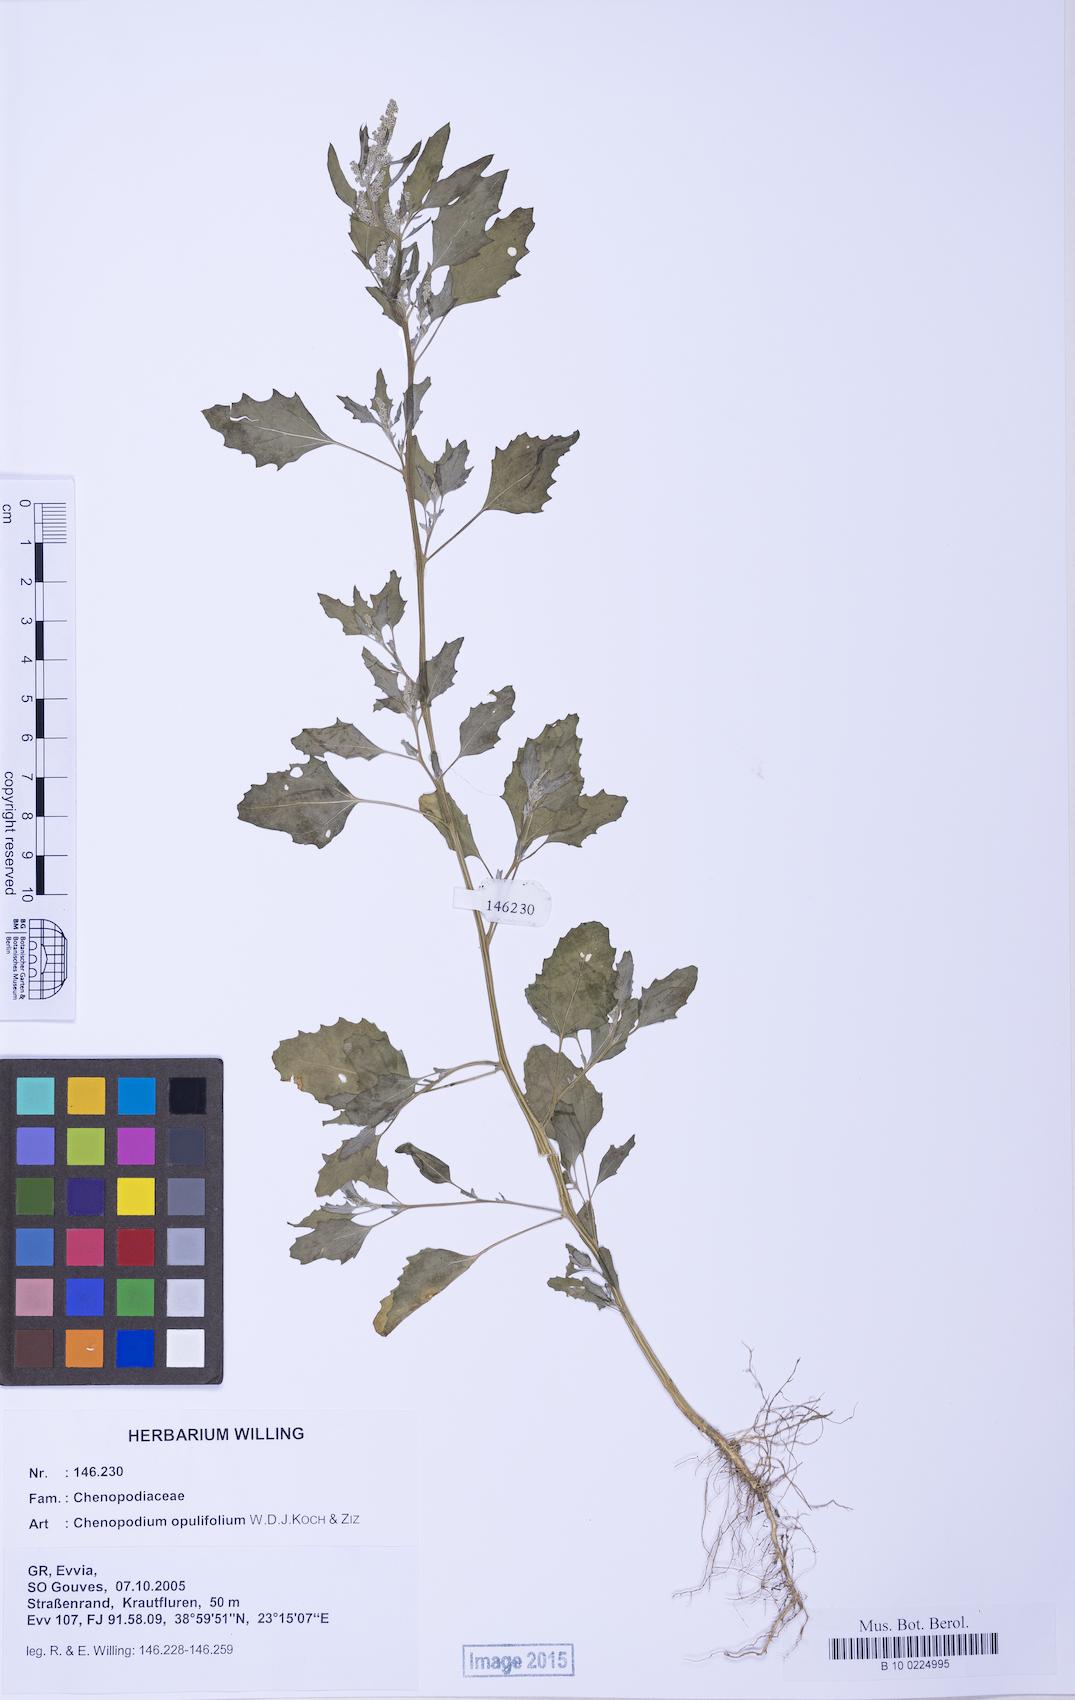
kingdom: Plantae
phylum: Tracheophyta
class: Magnoliopsida
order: Caryophyllales
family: Amaranthaceae
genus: Chenopodium
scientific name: Chenopodium album
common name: Fat-hen
